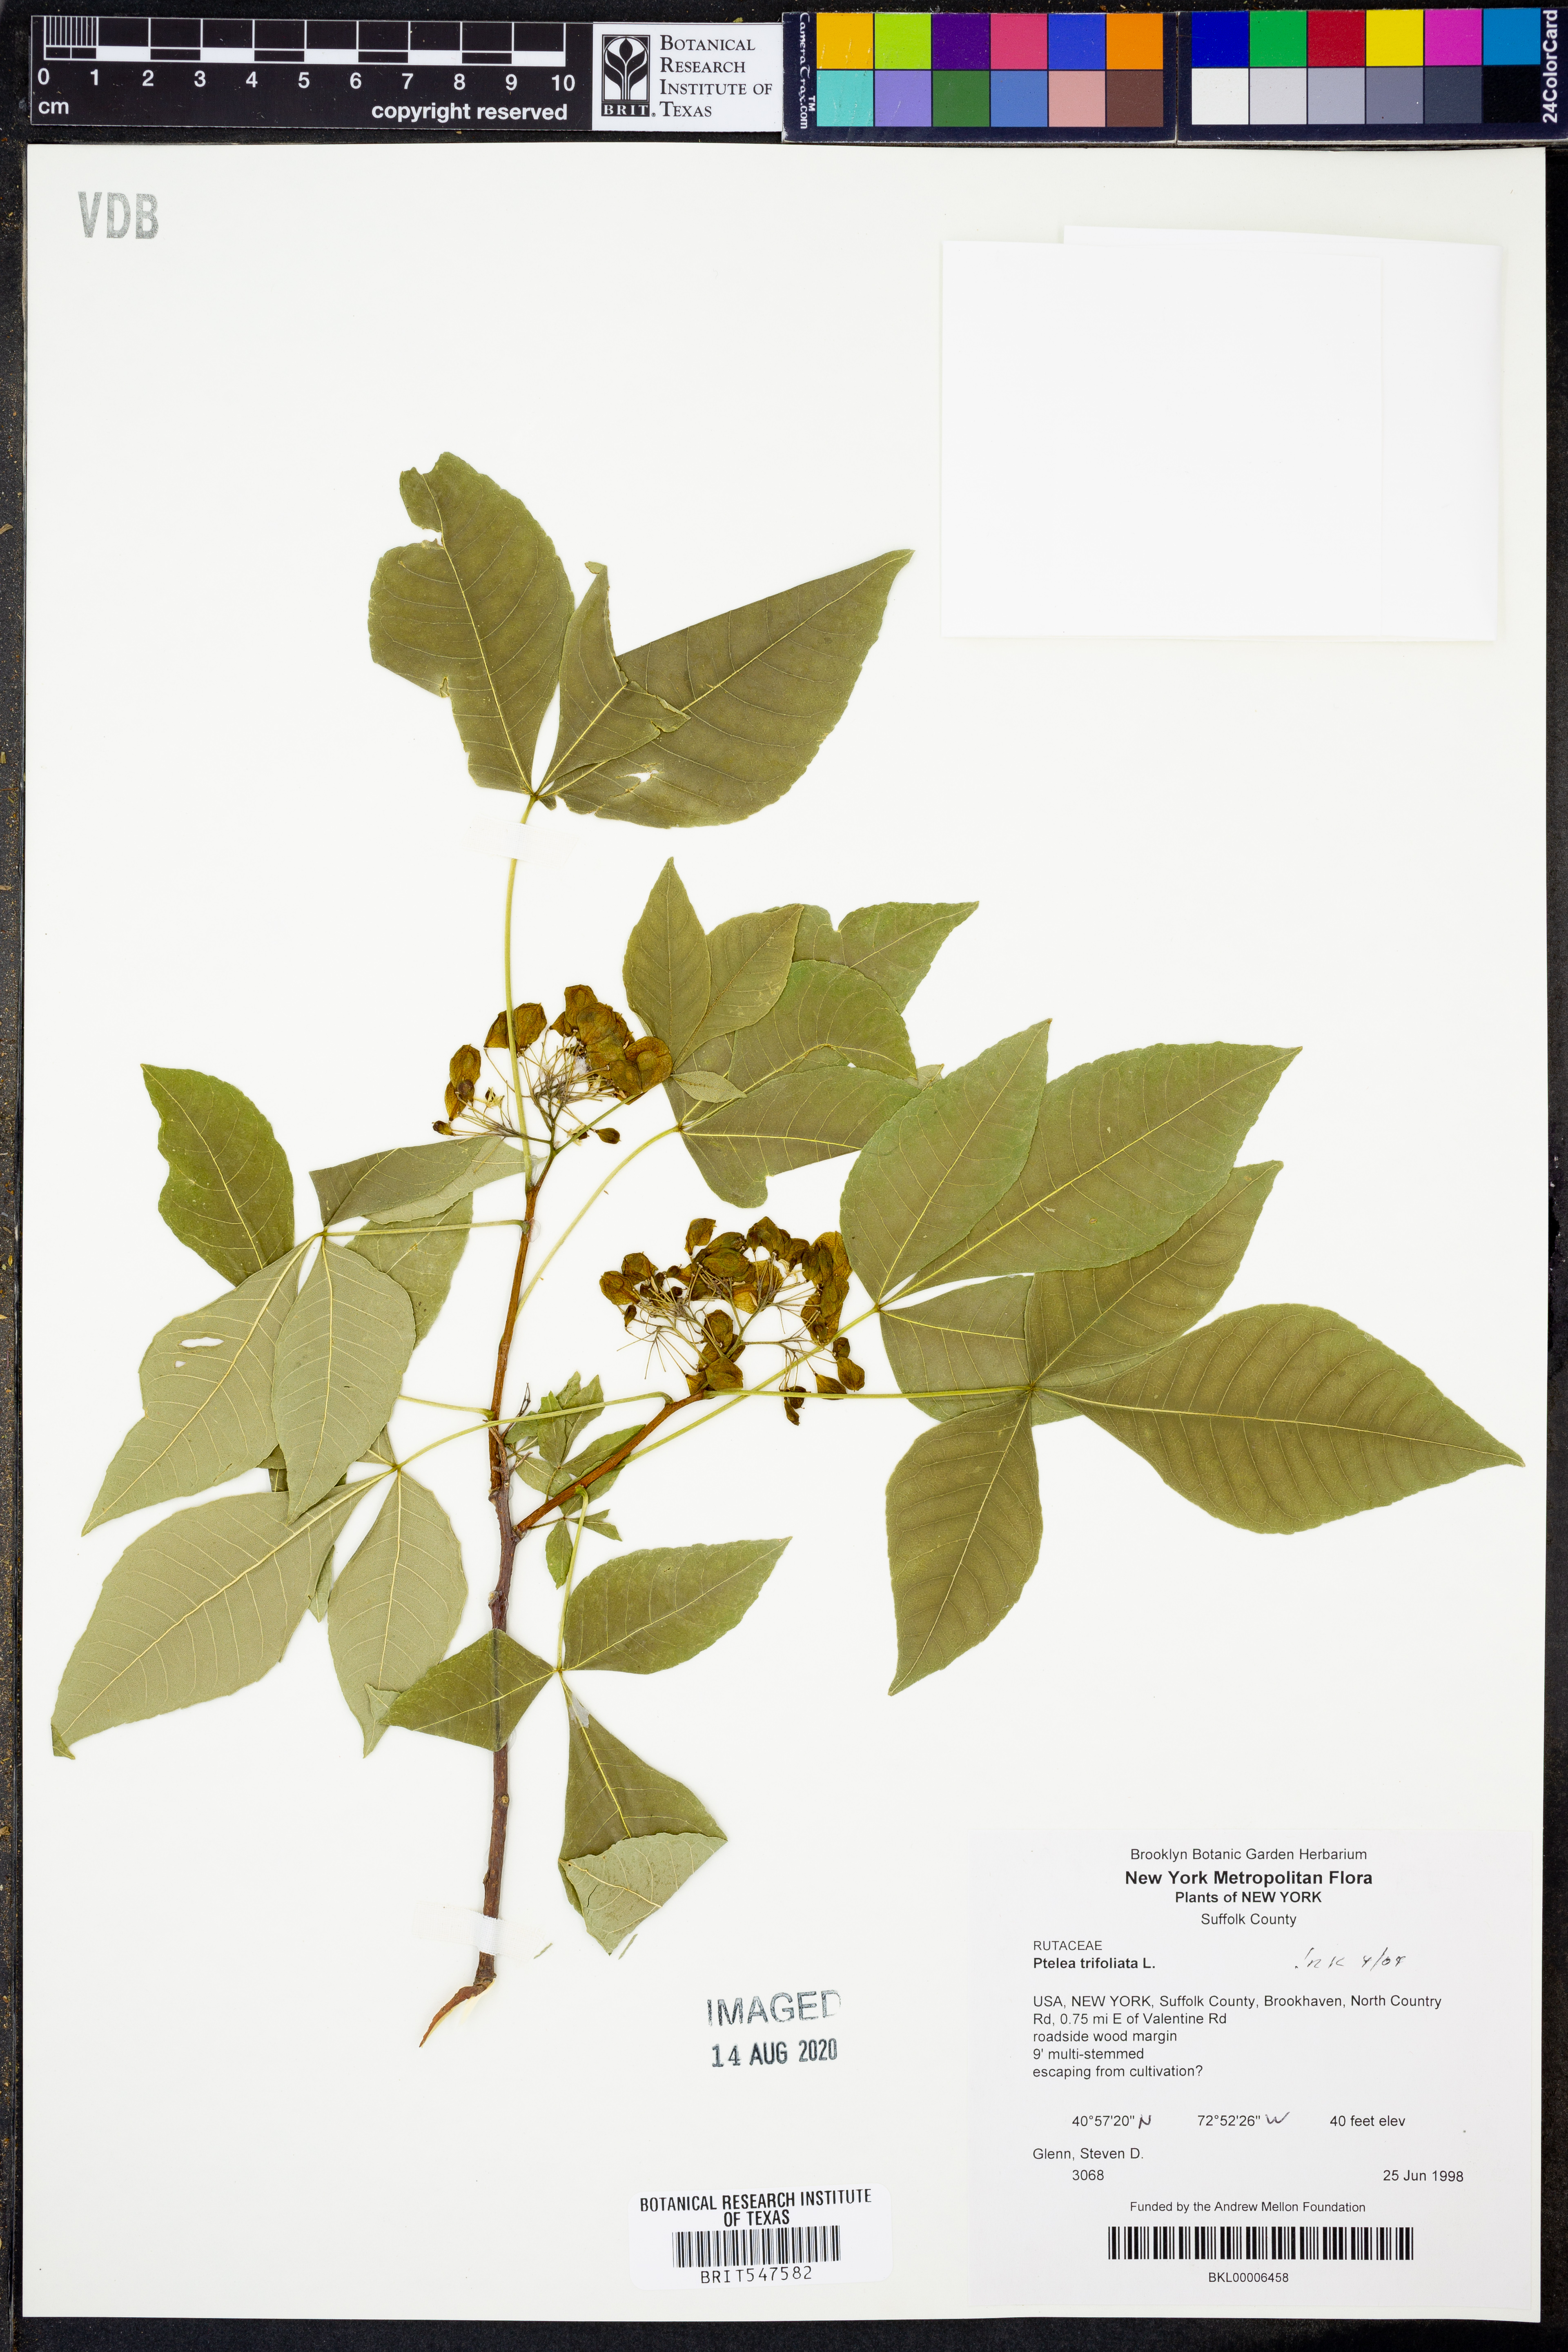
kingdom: Plantae
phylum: Tracheophyta
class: Magnoliopsida
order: Sapindales
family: Rutaceae
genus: Ptelea
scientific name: Ptelea trifoliata
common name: Common hop-tree
